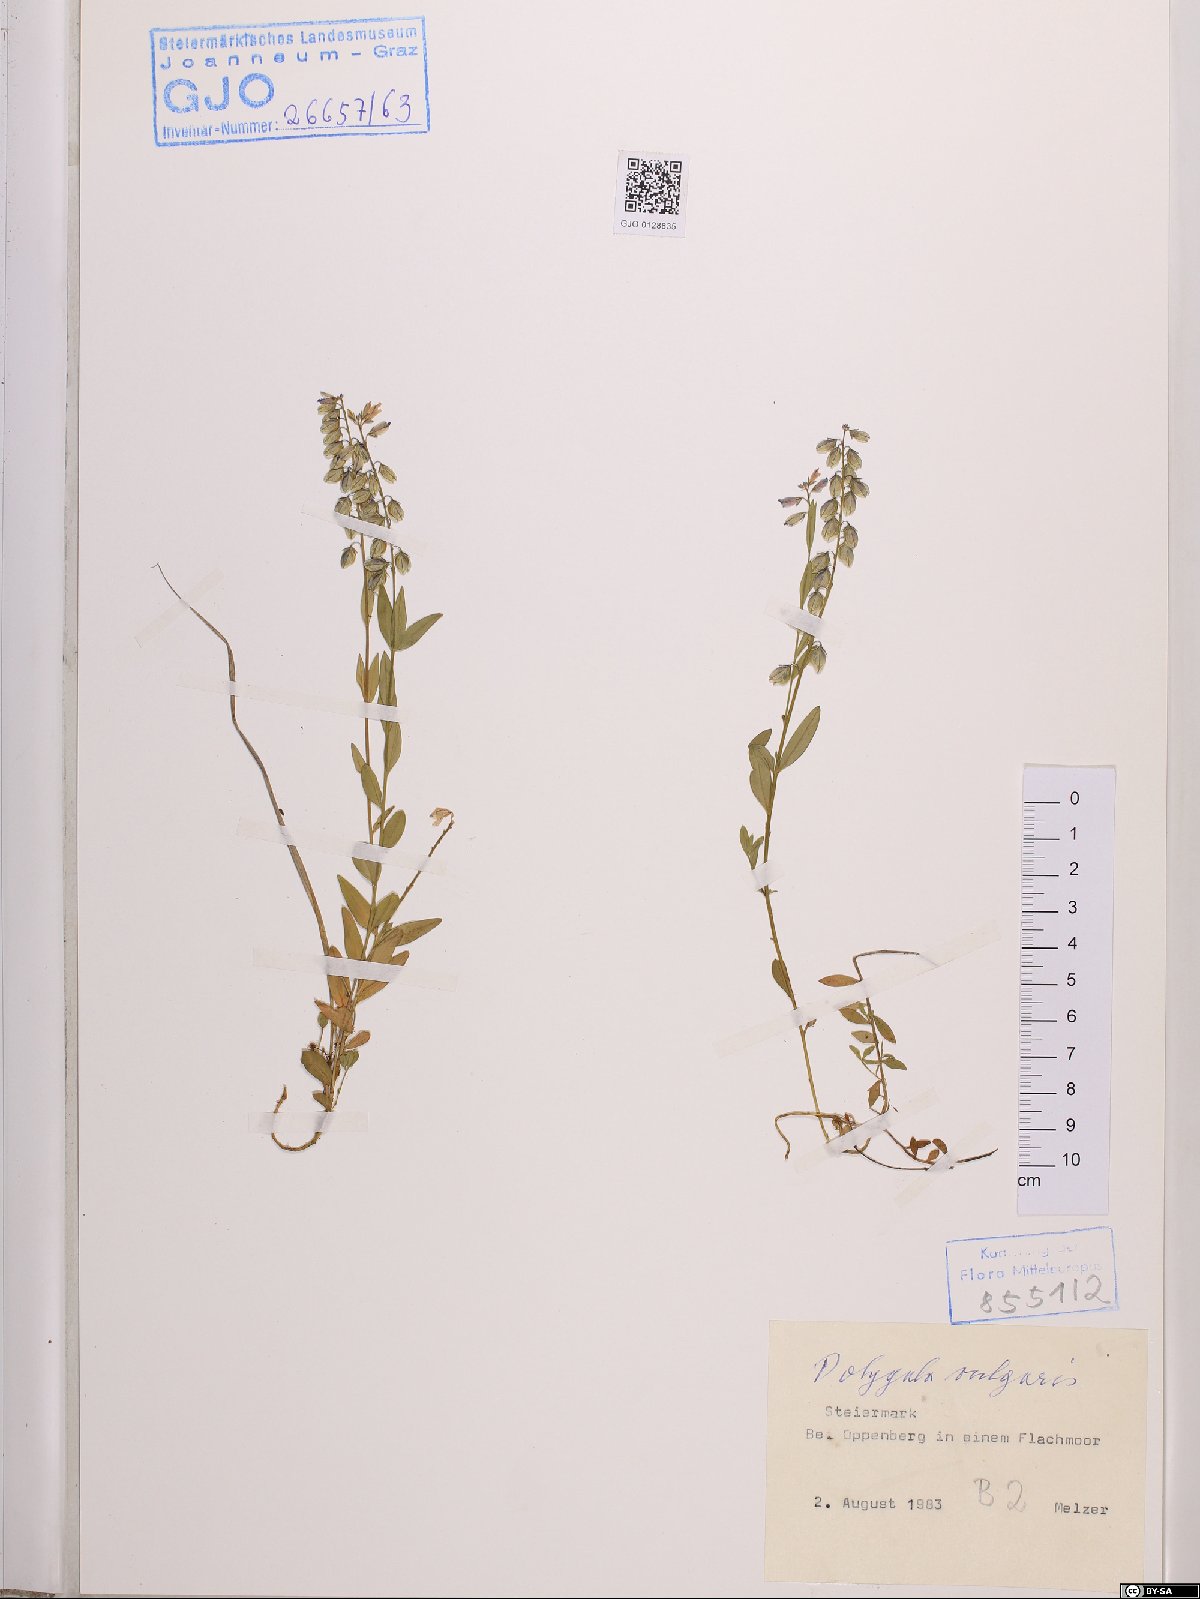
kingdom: Plantae
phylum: Tracheophyta
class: Magnoliopsida
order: Fabales
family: Polygalaceae
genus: Polygala
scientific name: Polygala vulgaris
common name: Common milkwort
